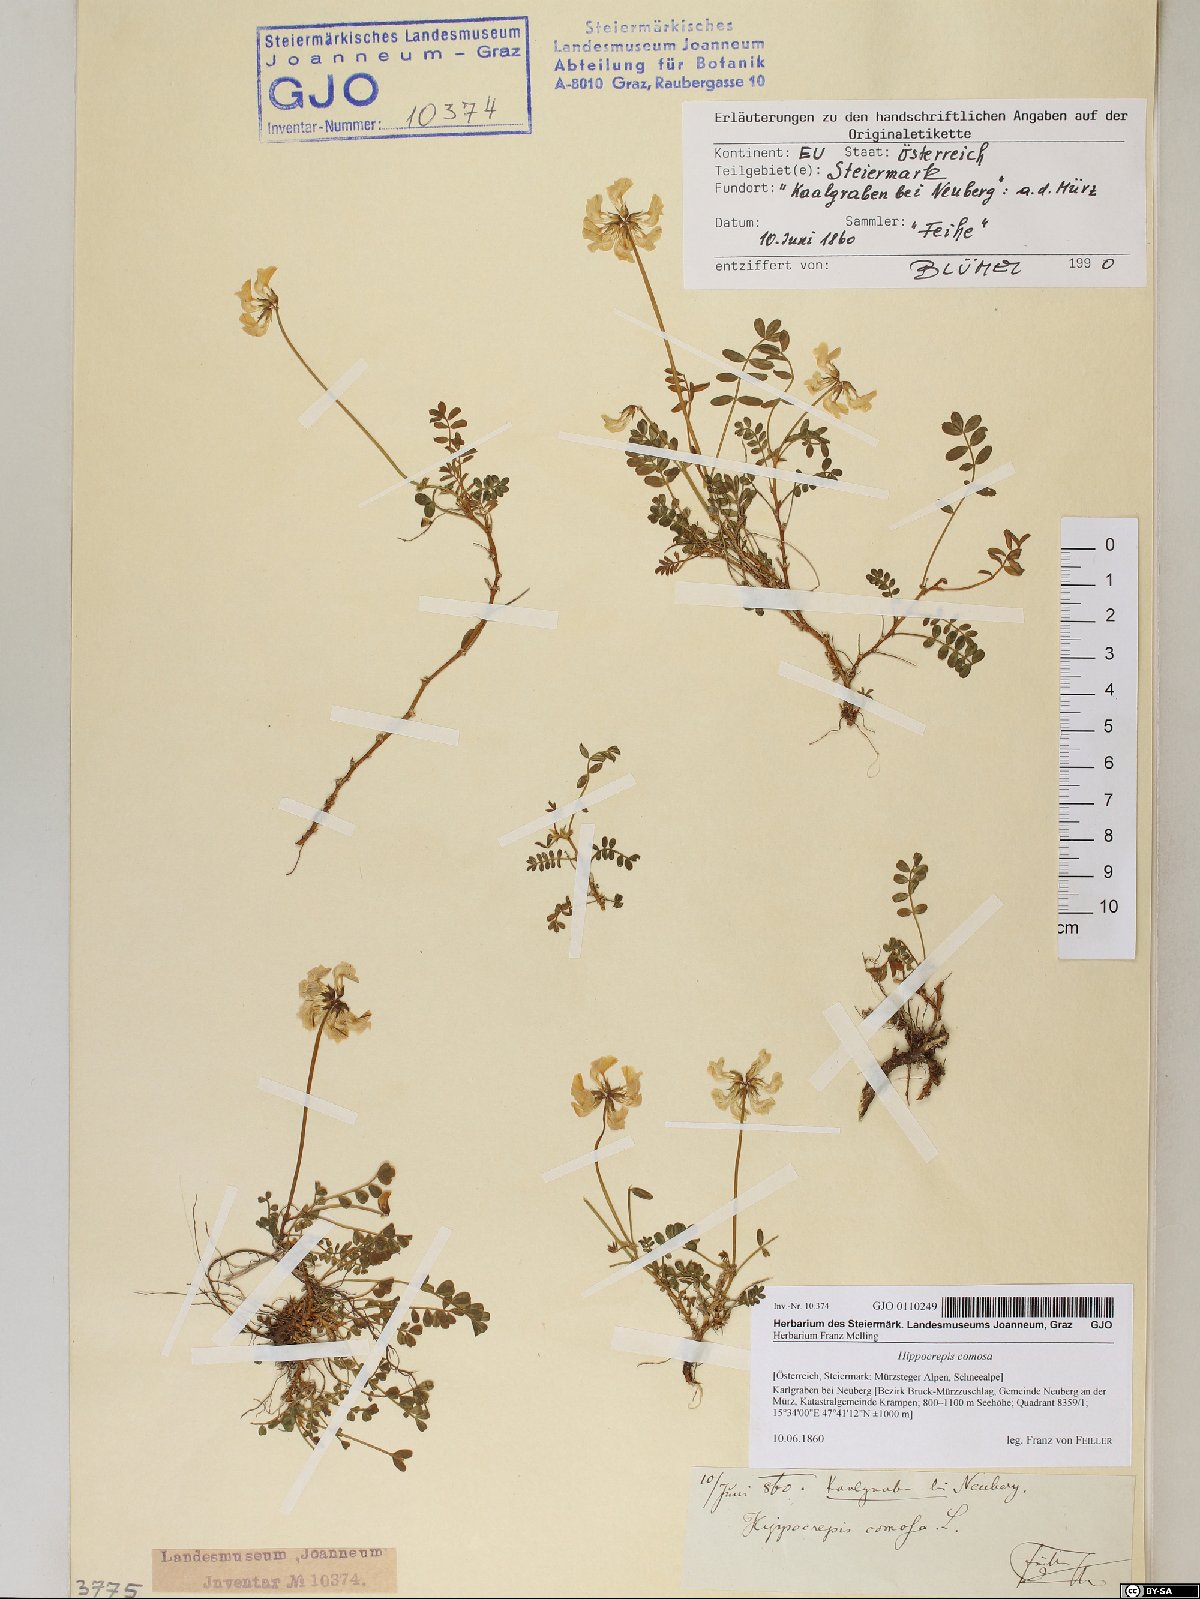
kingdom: Plantae
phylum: Tracheophyta
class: Magnoliopsida
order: Fabales
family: Fabaceae
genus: Hippocrepis
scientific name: Hippocrepis comosa
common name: Horseshoe vetch
